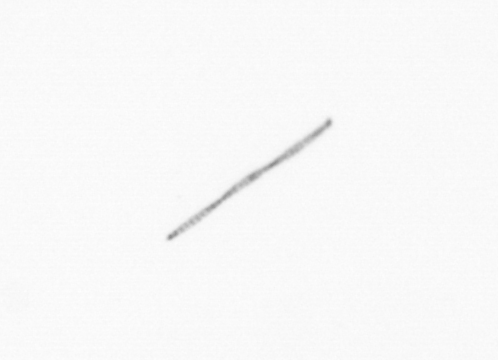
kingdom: Chromista
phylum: Ochrophyta
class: Bacillariophyceae
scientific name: Bacillariophyceae
